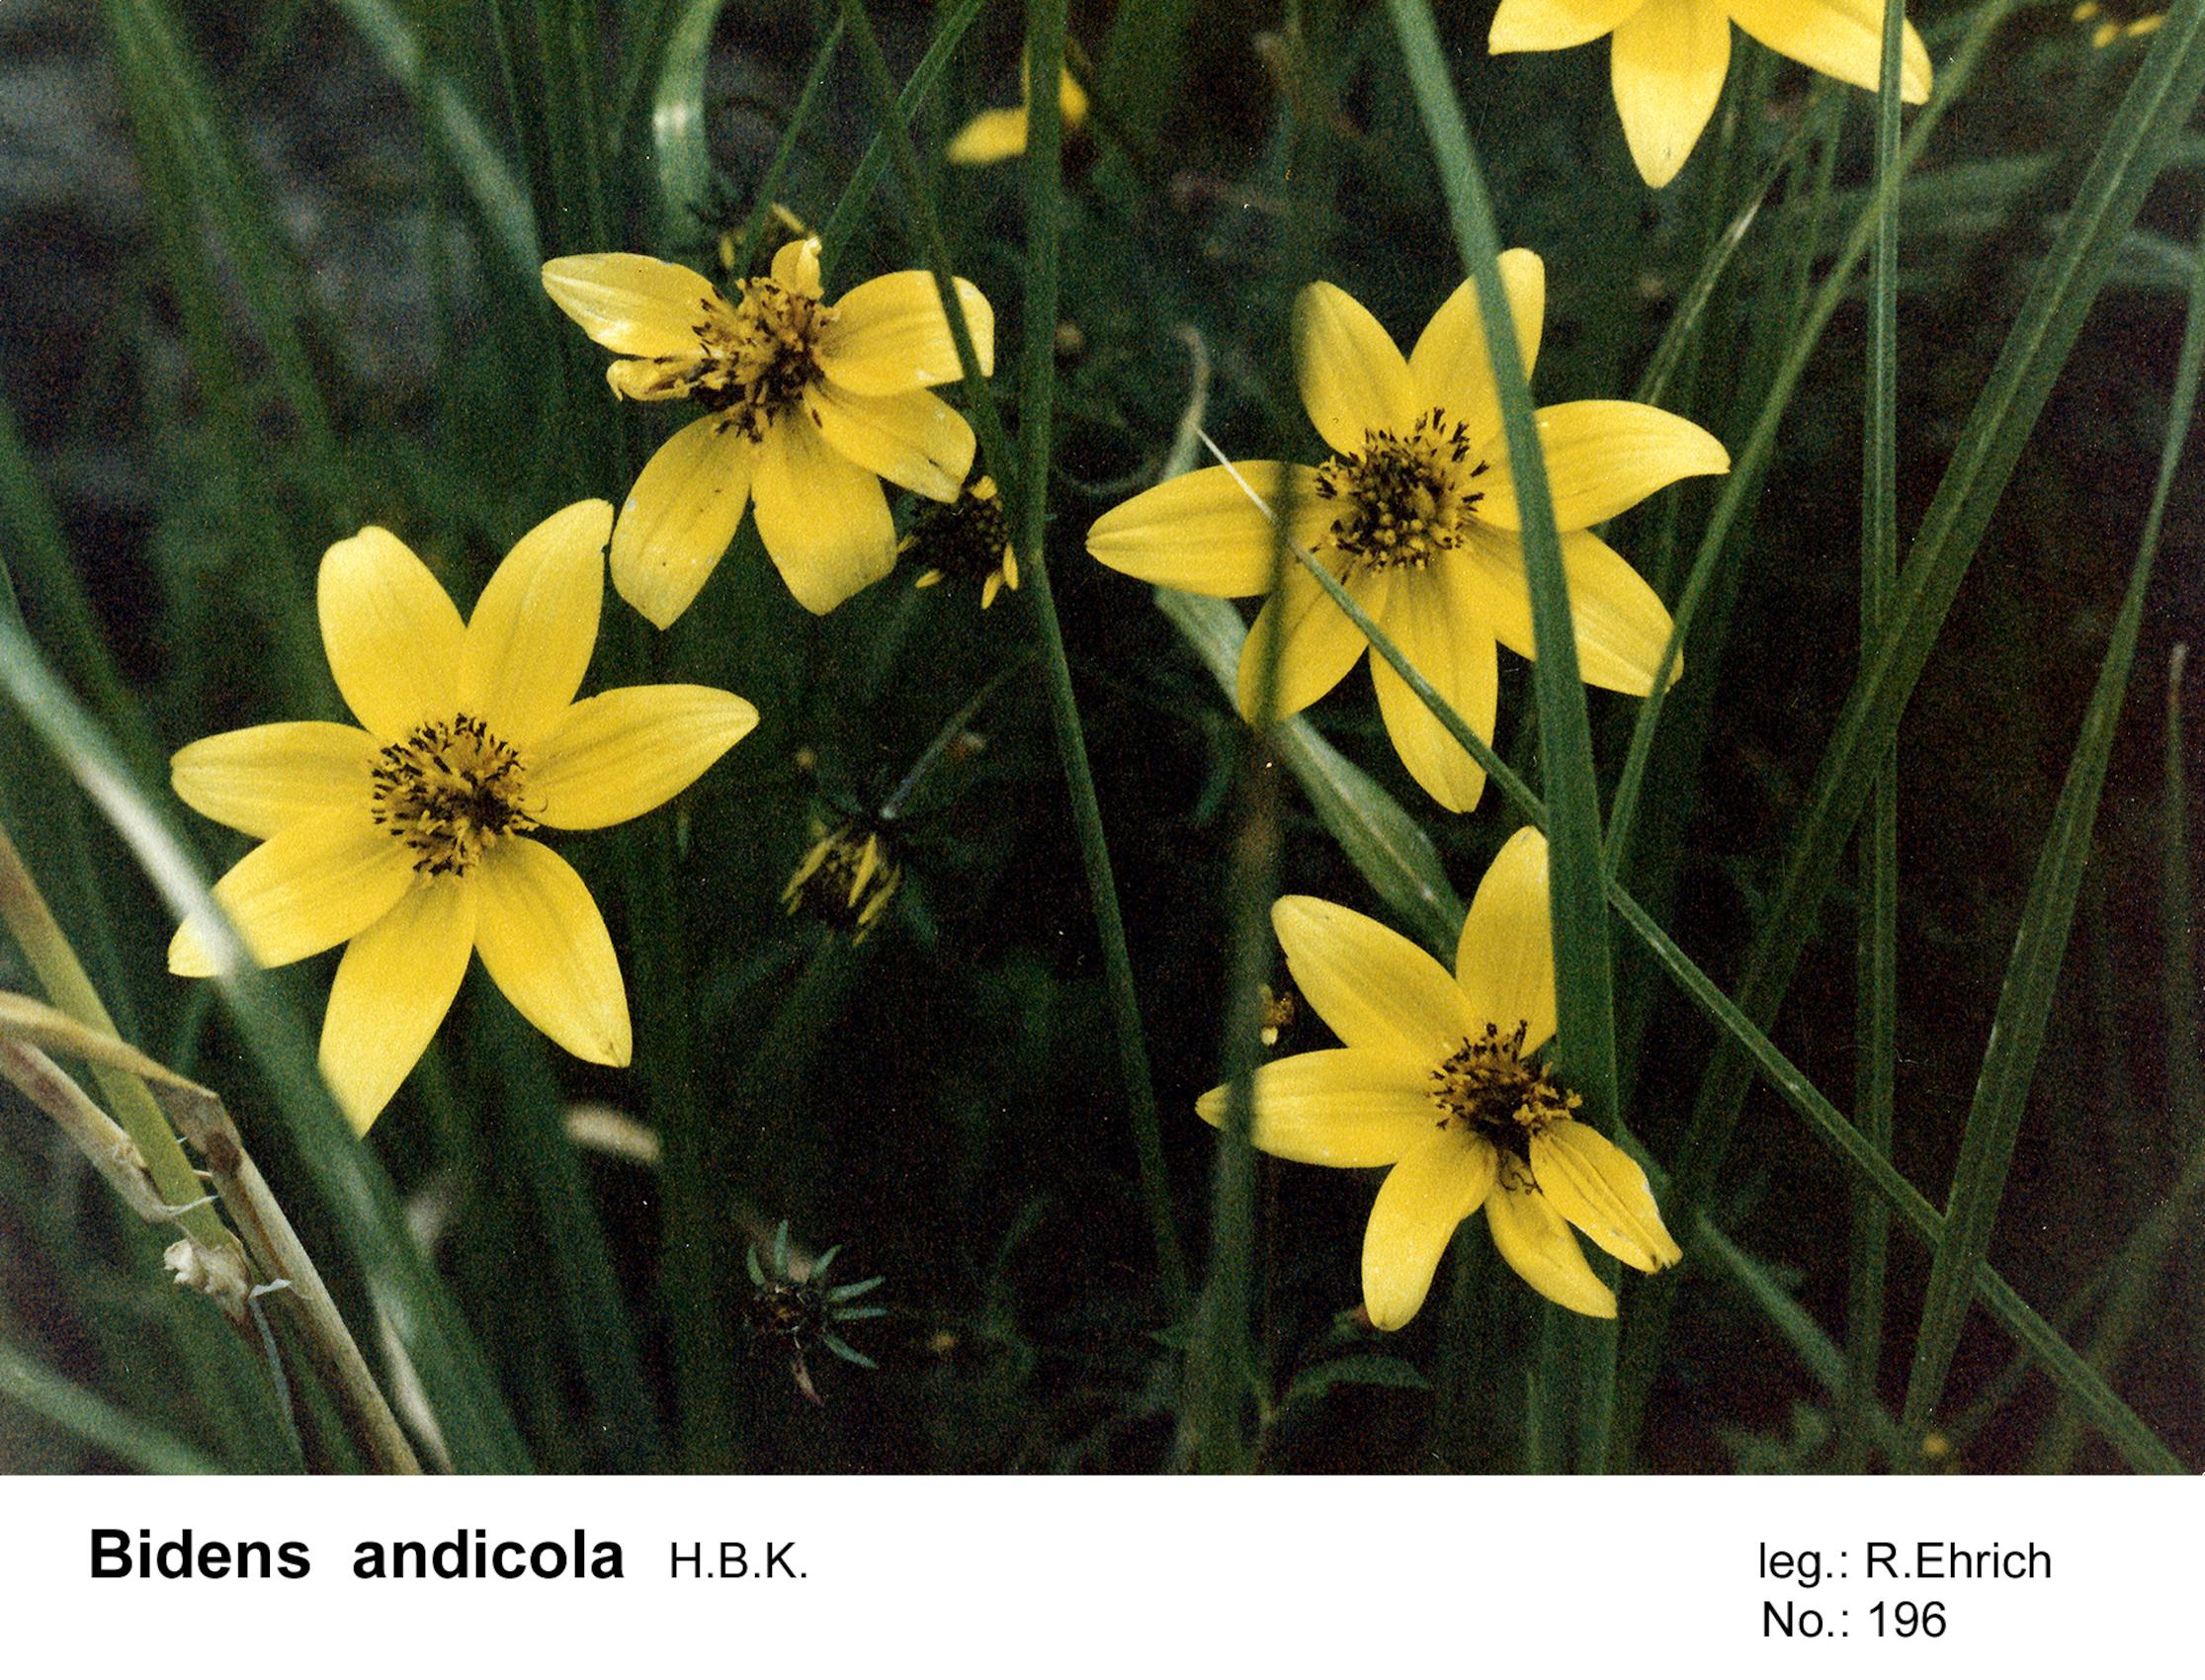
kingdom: Plantae
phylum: Tracheophyta
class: Magnoliopsida
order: Asterales
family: Asteraceae
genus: Bidens
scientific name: Bidens andicola
